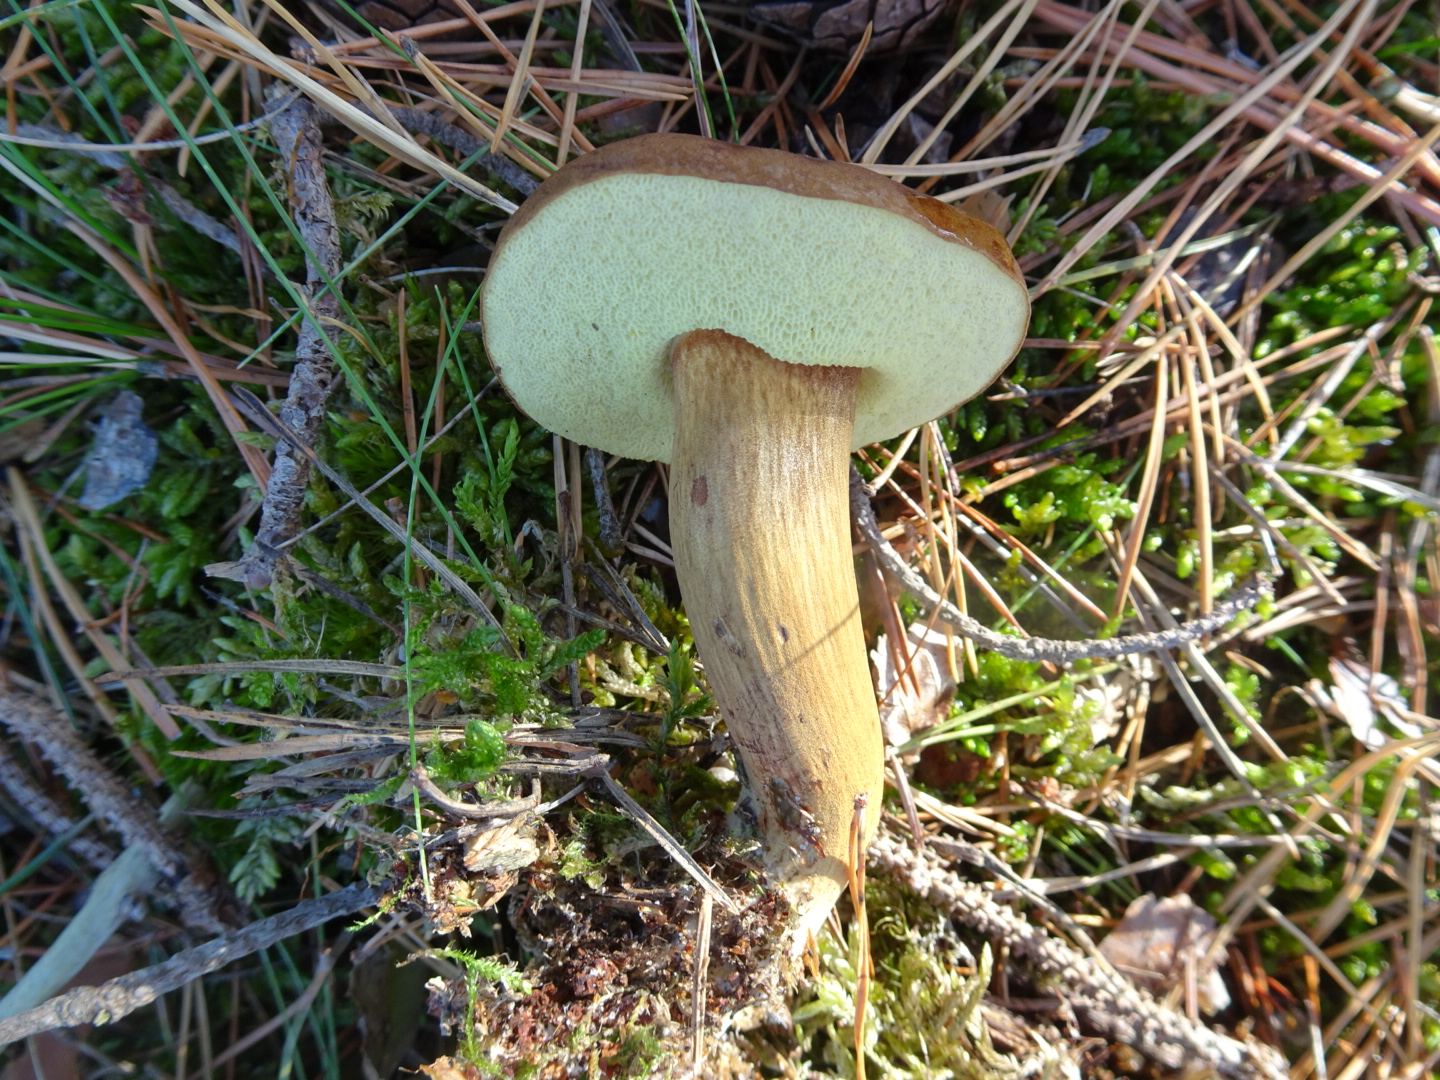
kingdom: Fungi
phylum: Basidiomycota
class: Agaricomycetes
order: Boletales
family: Boletaceae
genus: Imleria
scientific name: Imleria badia
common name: brunstokket rørhat
